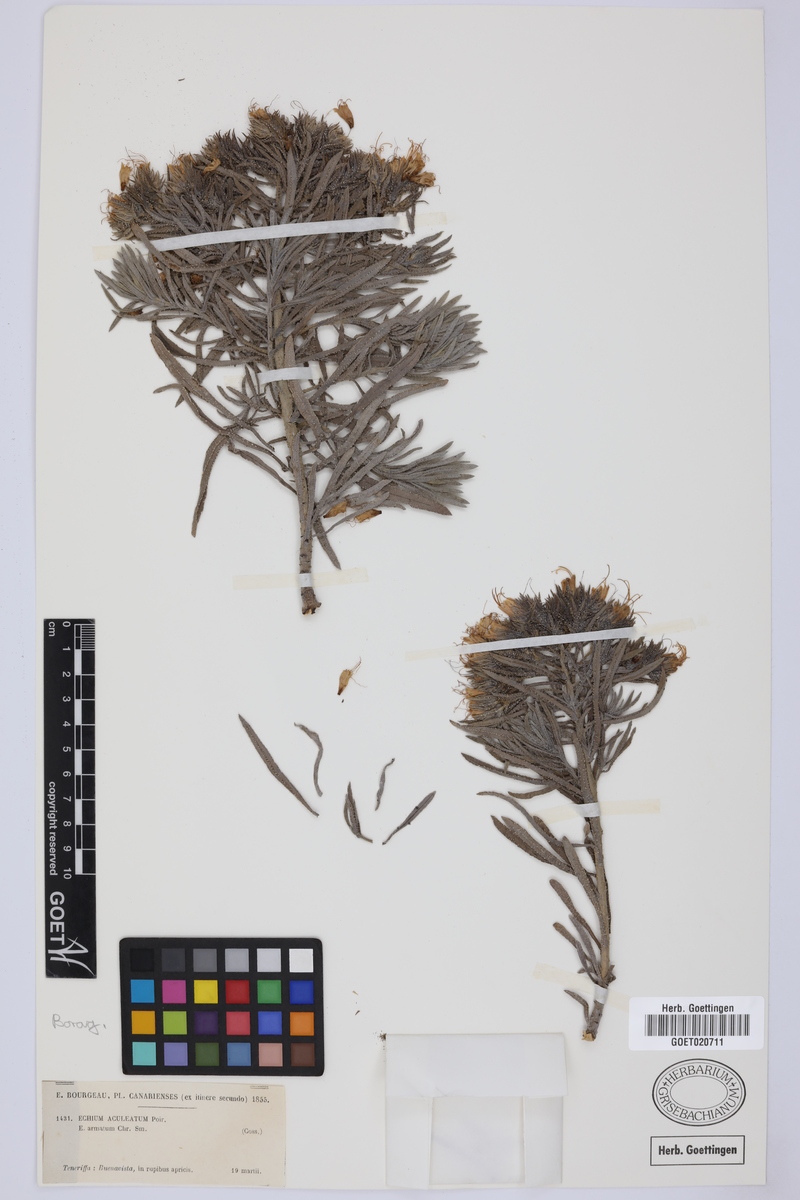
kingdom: Plantae
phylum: Tracheophyta
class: Magnoliopsida
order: Boraginales
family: Boraginaceae
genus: Echium
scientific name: Echium aculeatum
